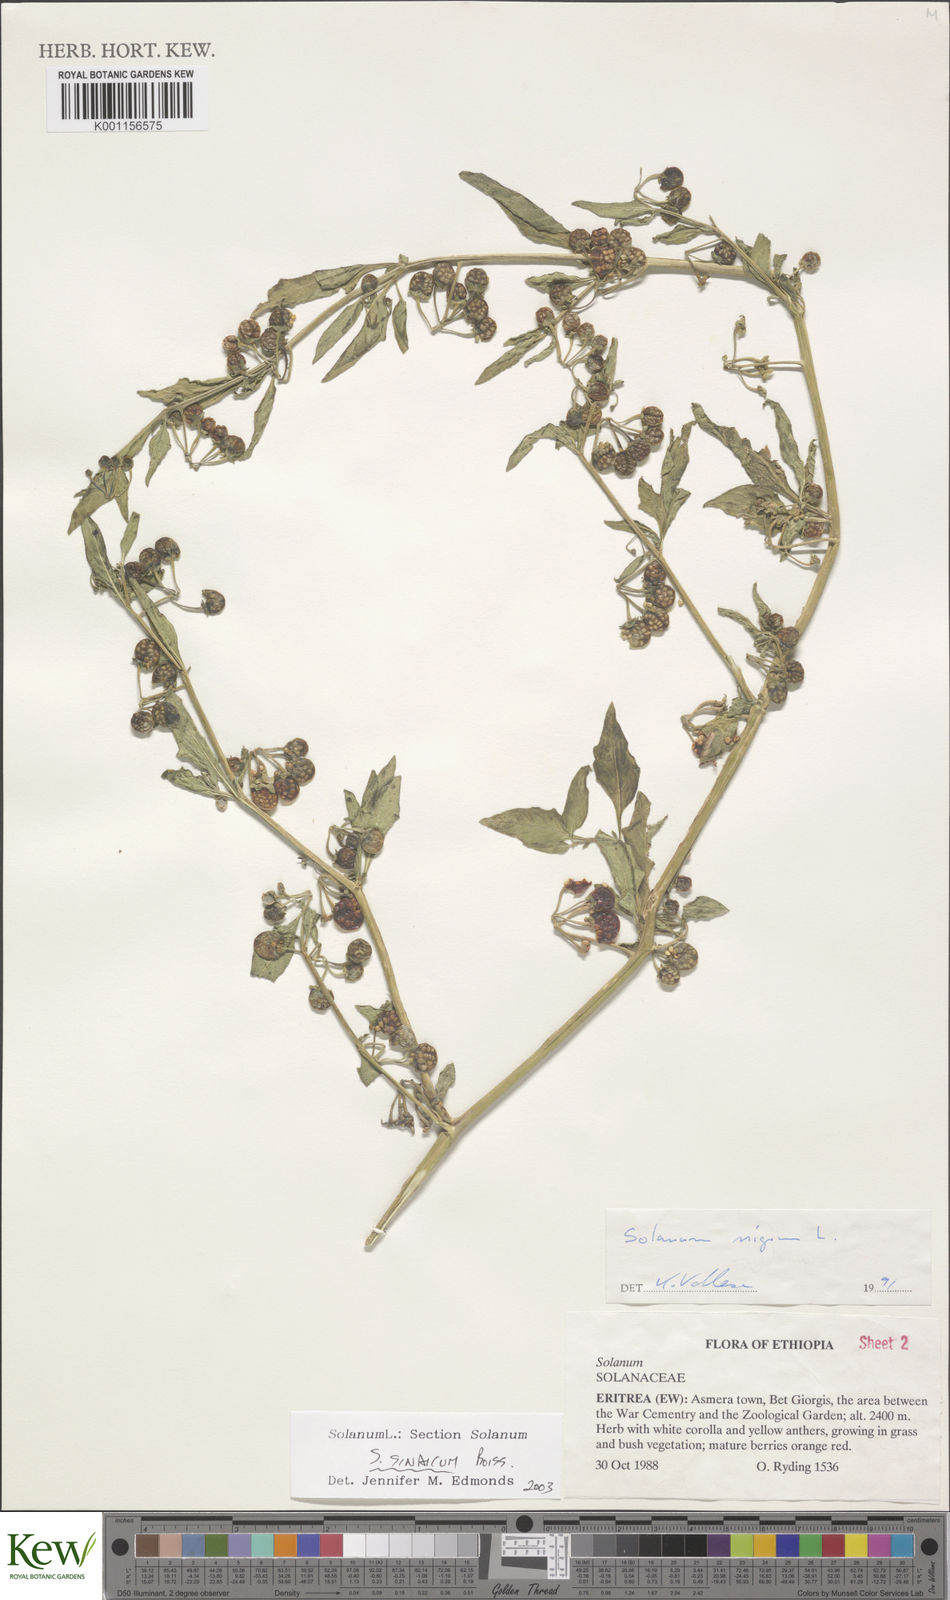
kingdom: Plantae
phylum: Tracheophyta
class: Magnoliopsida
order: Solanales
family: Solanaceae
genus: Solanum
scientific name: Solanum villosum
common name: Red nightshade
